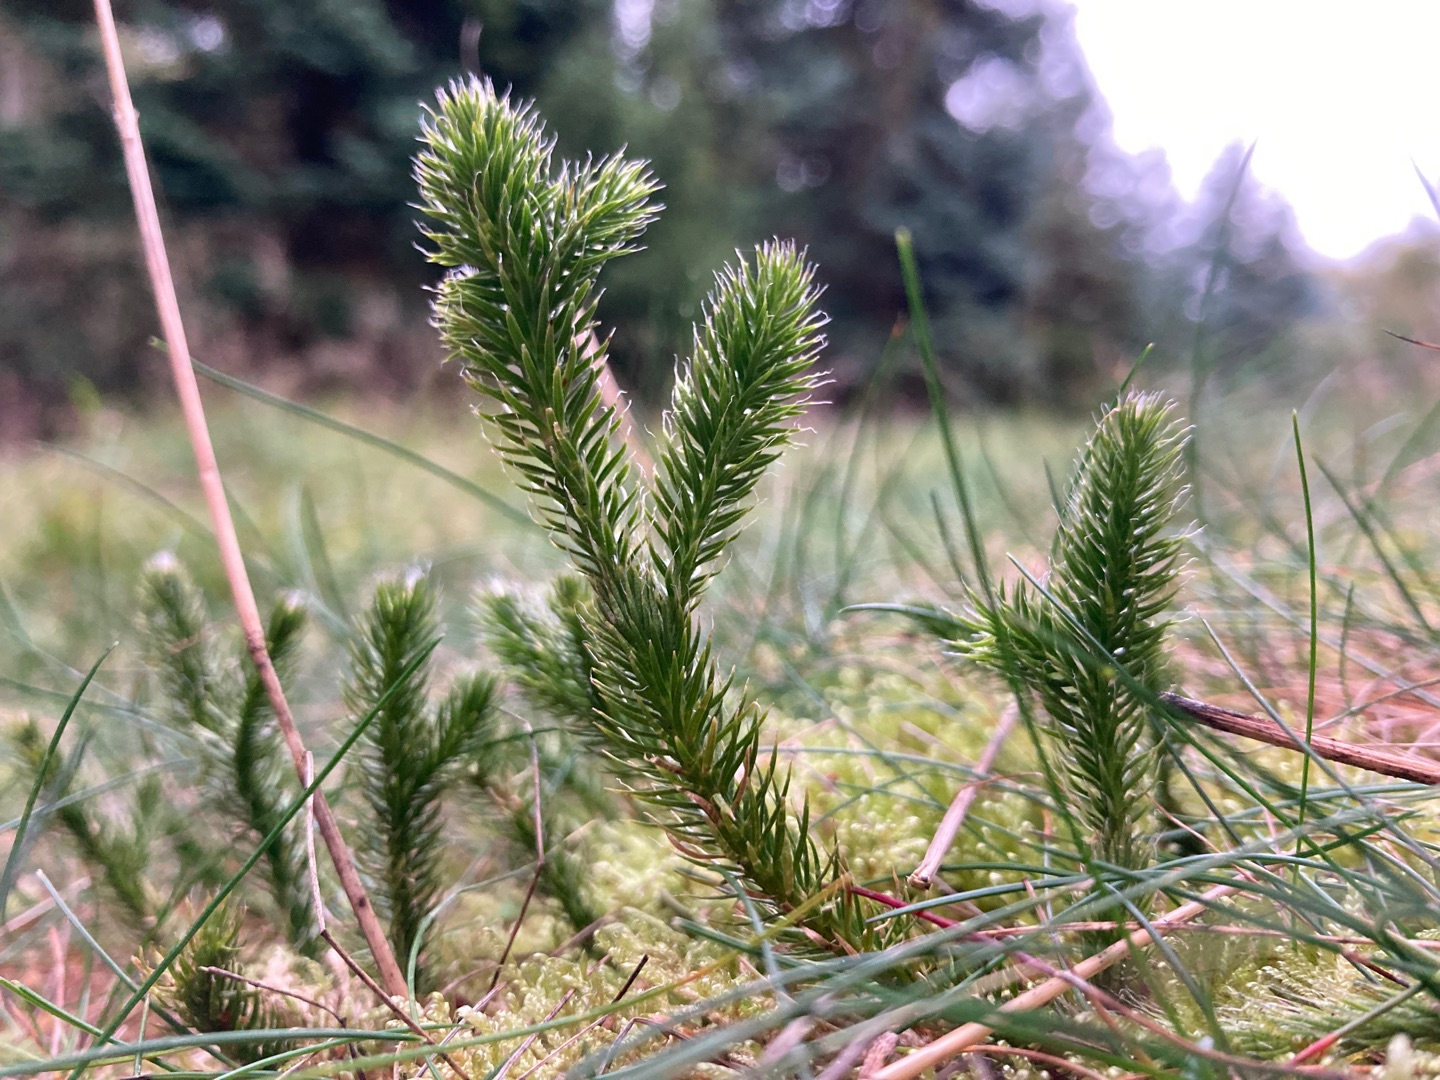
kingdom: Plantae
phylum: Tracheophyta
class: Lycopodiopsida
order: Lycopodiales
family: Lycopodiaceae
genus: Lycopodium
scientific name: Lycopodium clavatum
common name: Almindelig ulvefod
